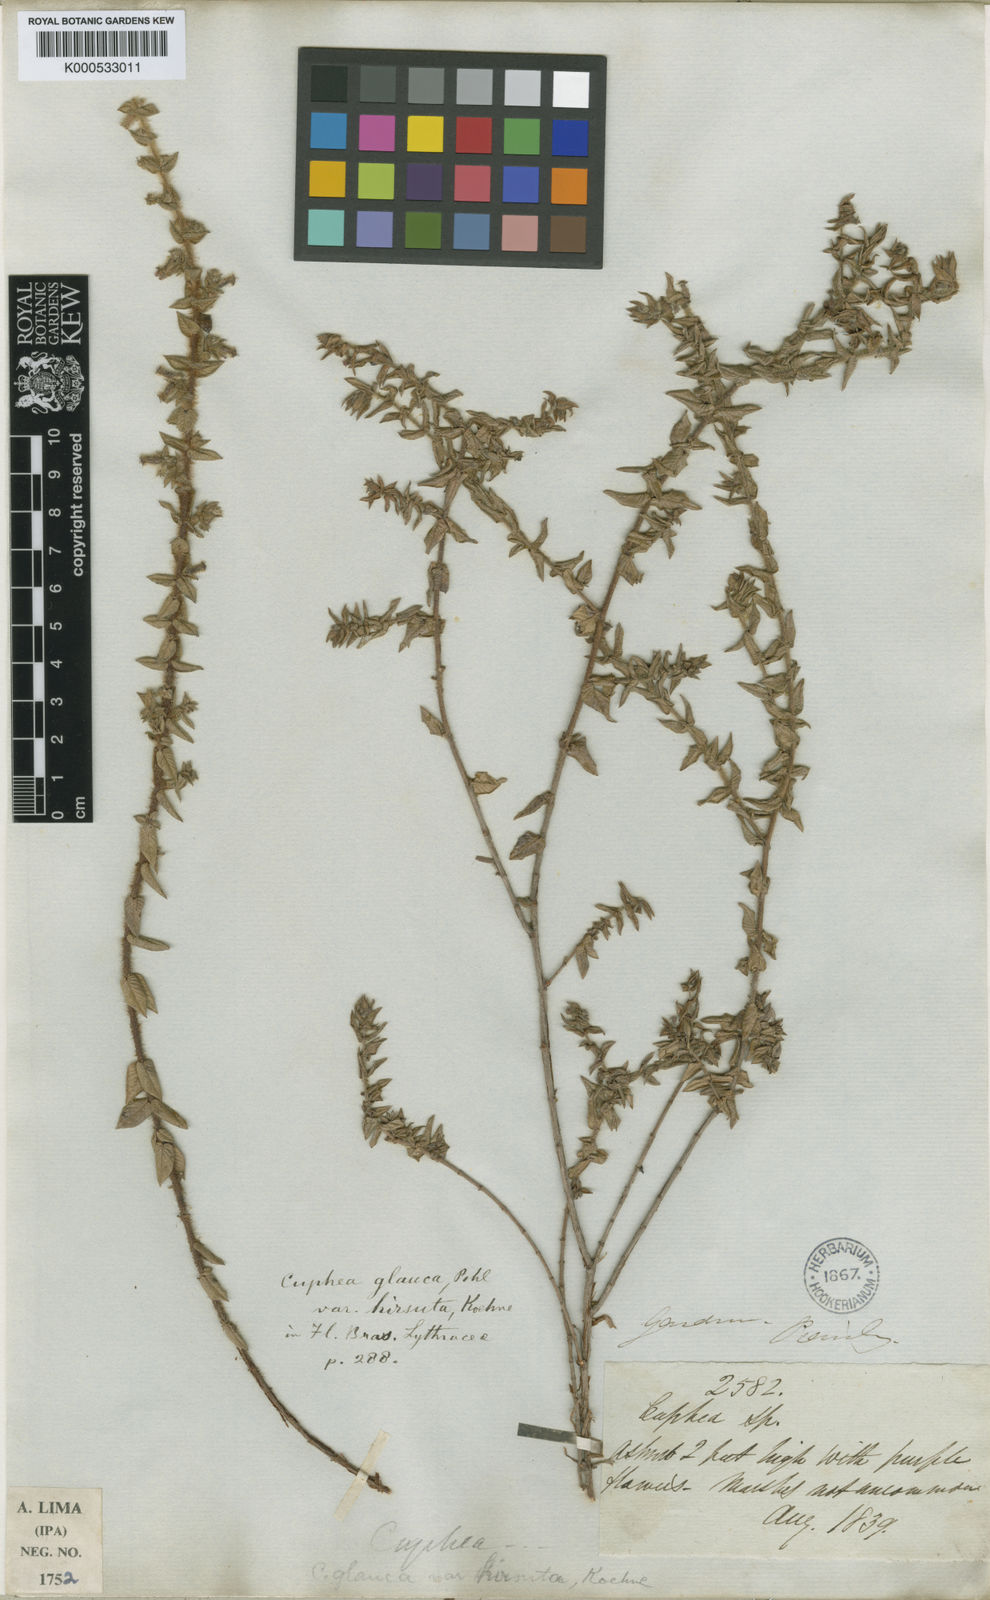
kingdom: Plantae
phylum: Tracheophyta
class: Magnoliopsida
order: Myrtales
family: Lythraceae
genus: Cuphea
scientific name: Cuphea glauca
